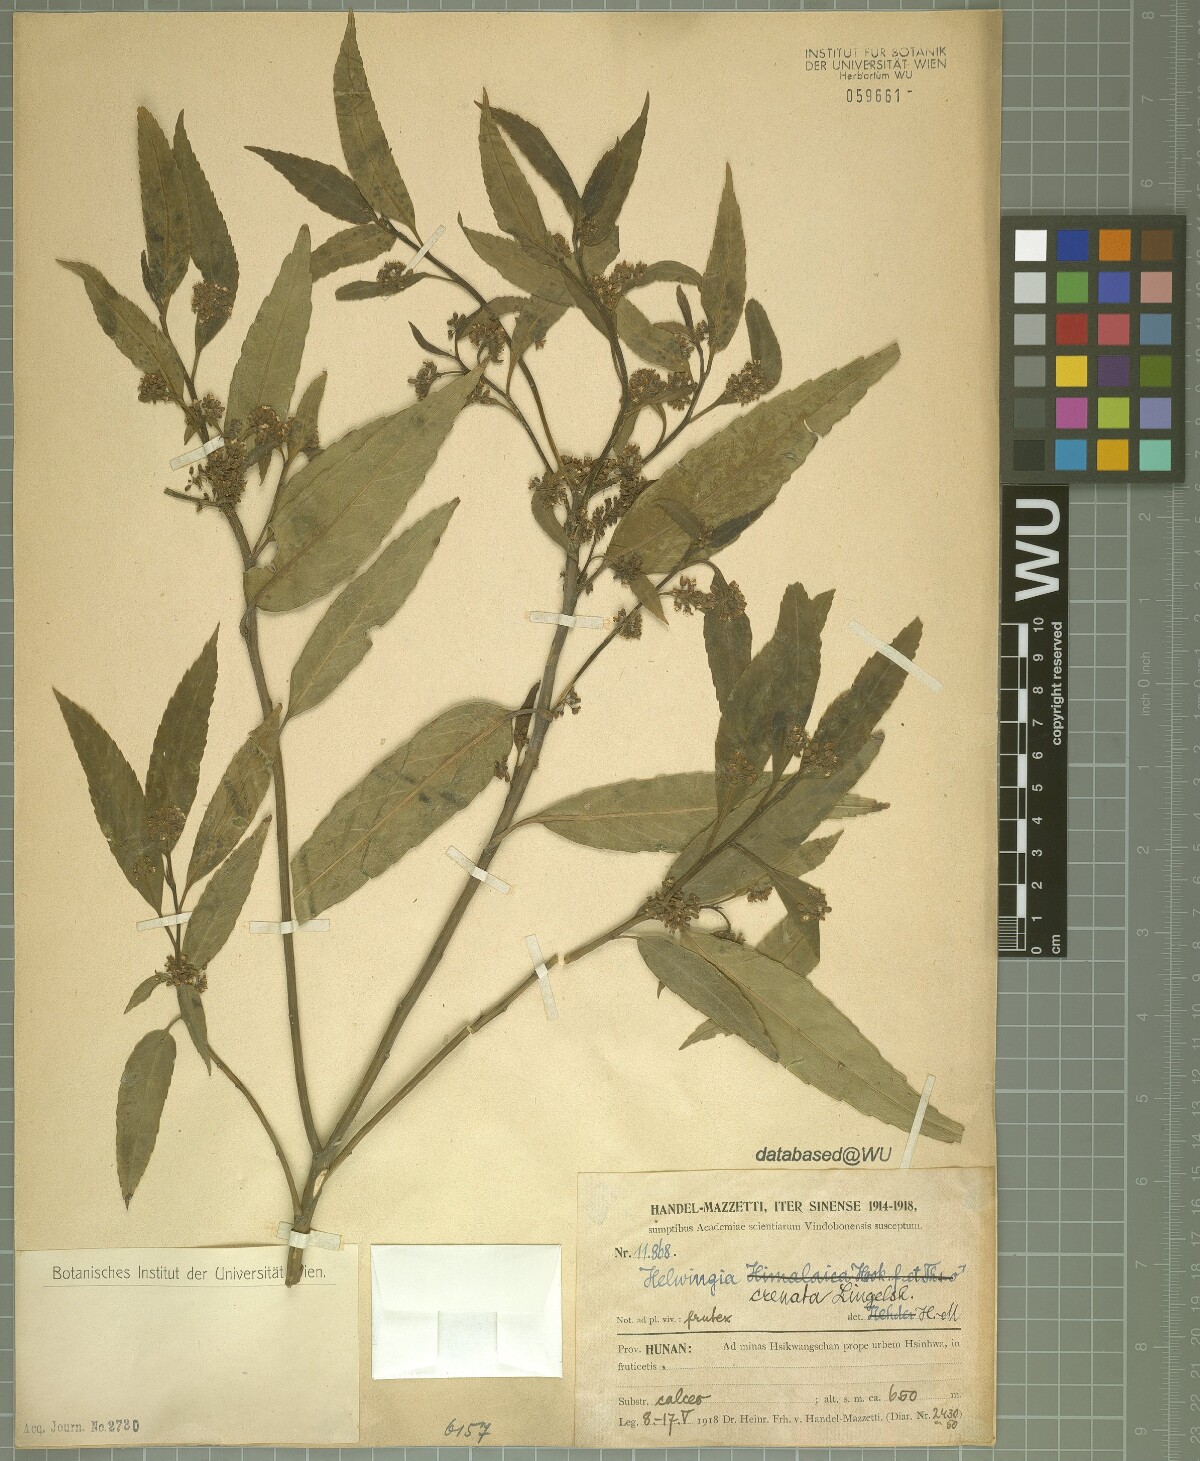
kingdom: Plantae
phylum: Tracheophyta
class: Magnoliopsida
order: Aquifoliales
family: Helwingiaceae
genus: Helwingia
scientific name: Helwingia crenata
